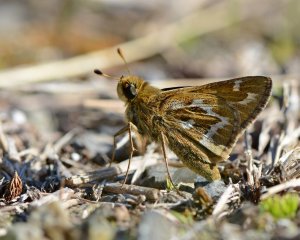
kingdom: Animalia
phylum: Arthropoda
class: Insecta
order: Lepidoptera
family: Hesperiidae
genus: Hesperia
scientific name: Hesperia metea
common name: Cobweb Skipper
